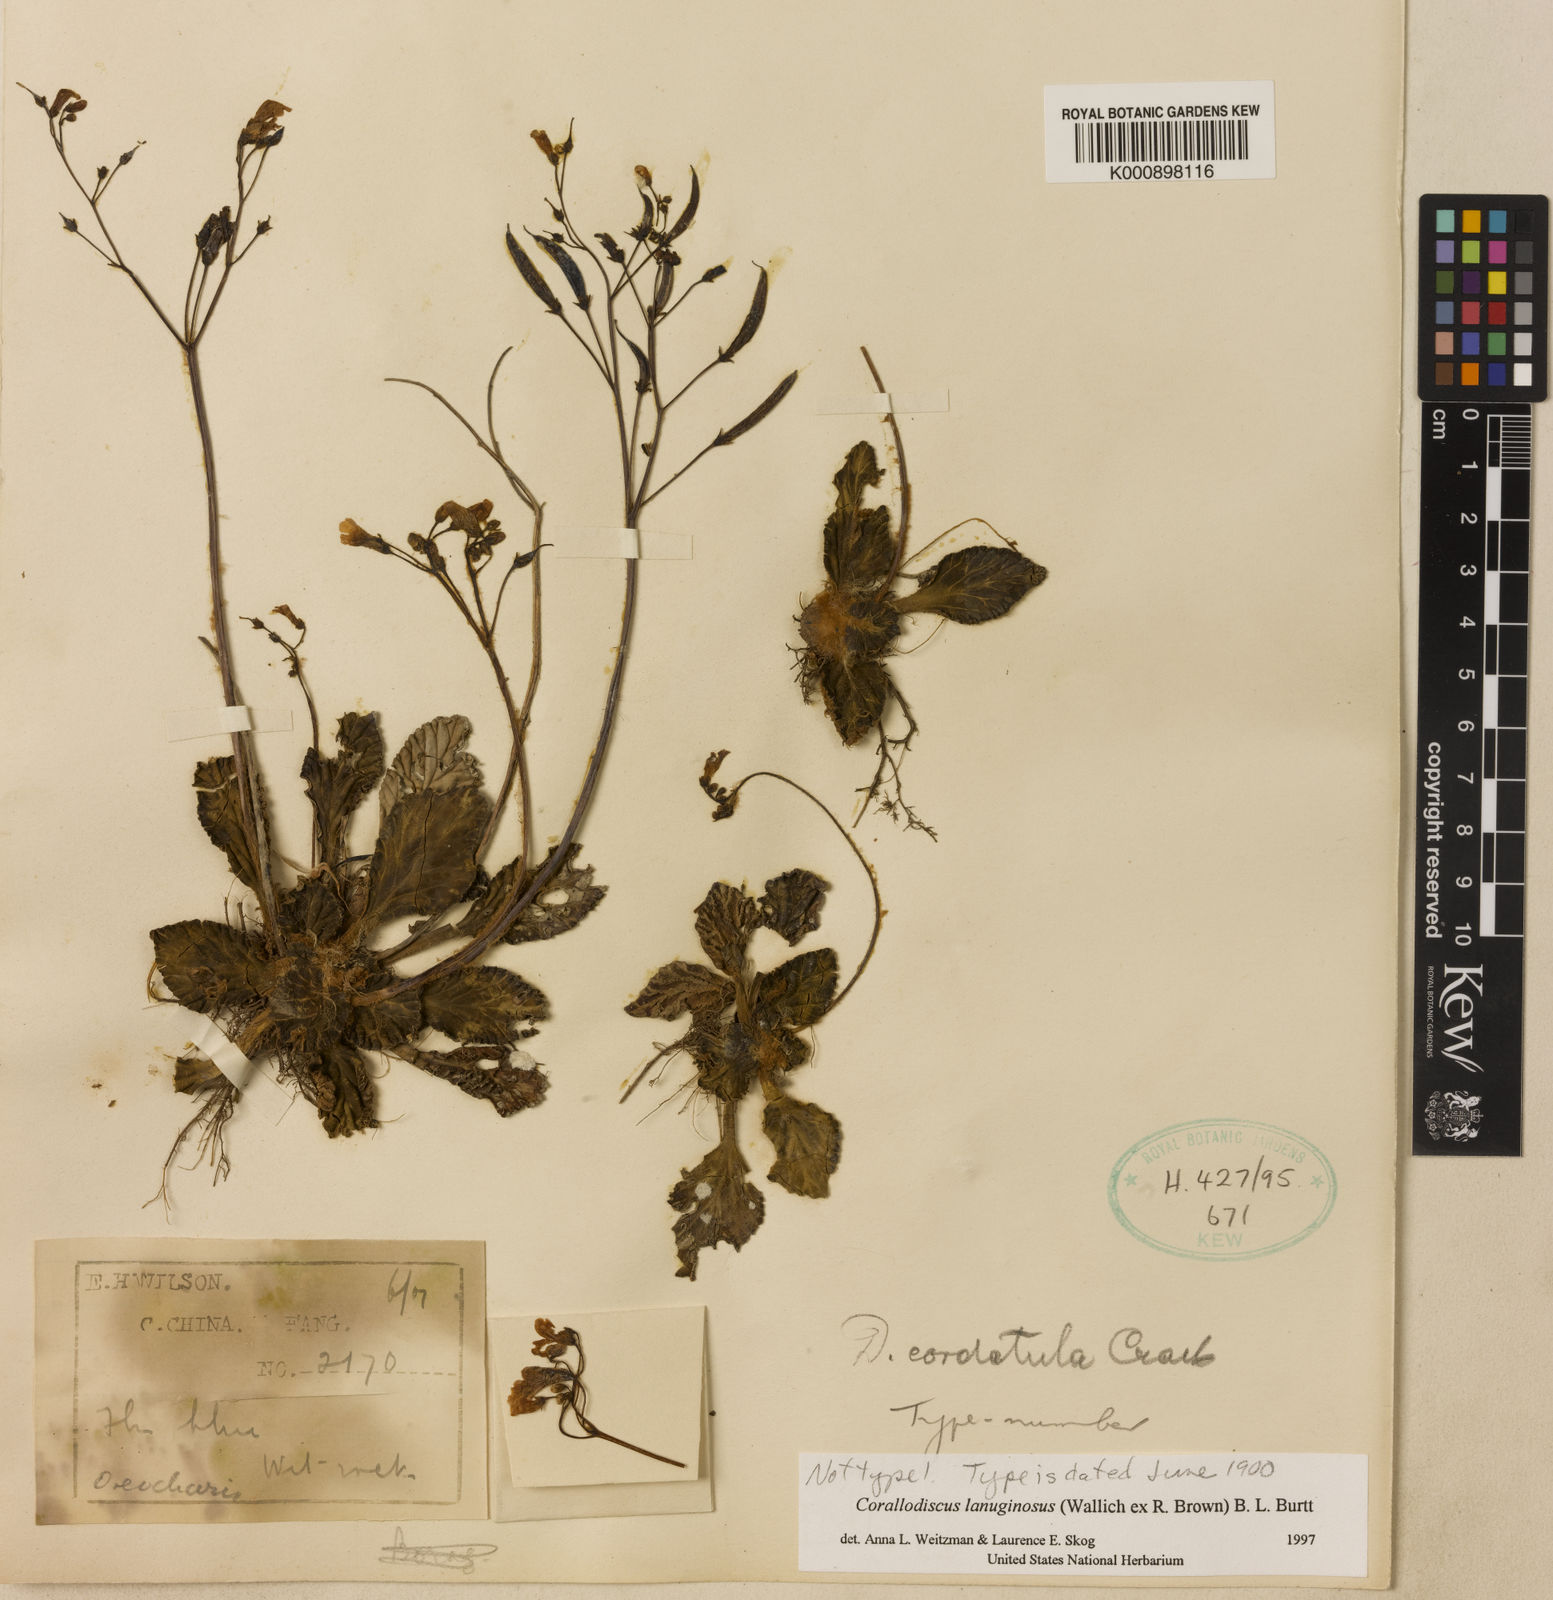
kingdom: Plantae
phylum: Tracheophyta
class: Magnoliopsida
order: Lamiales
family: Gesneriaceae
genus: Corallodiscus
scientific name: Corallodiscus lanuginosus
